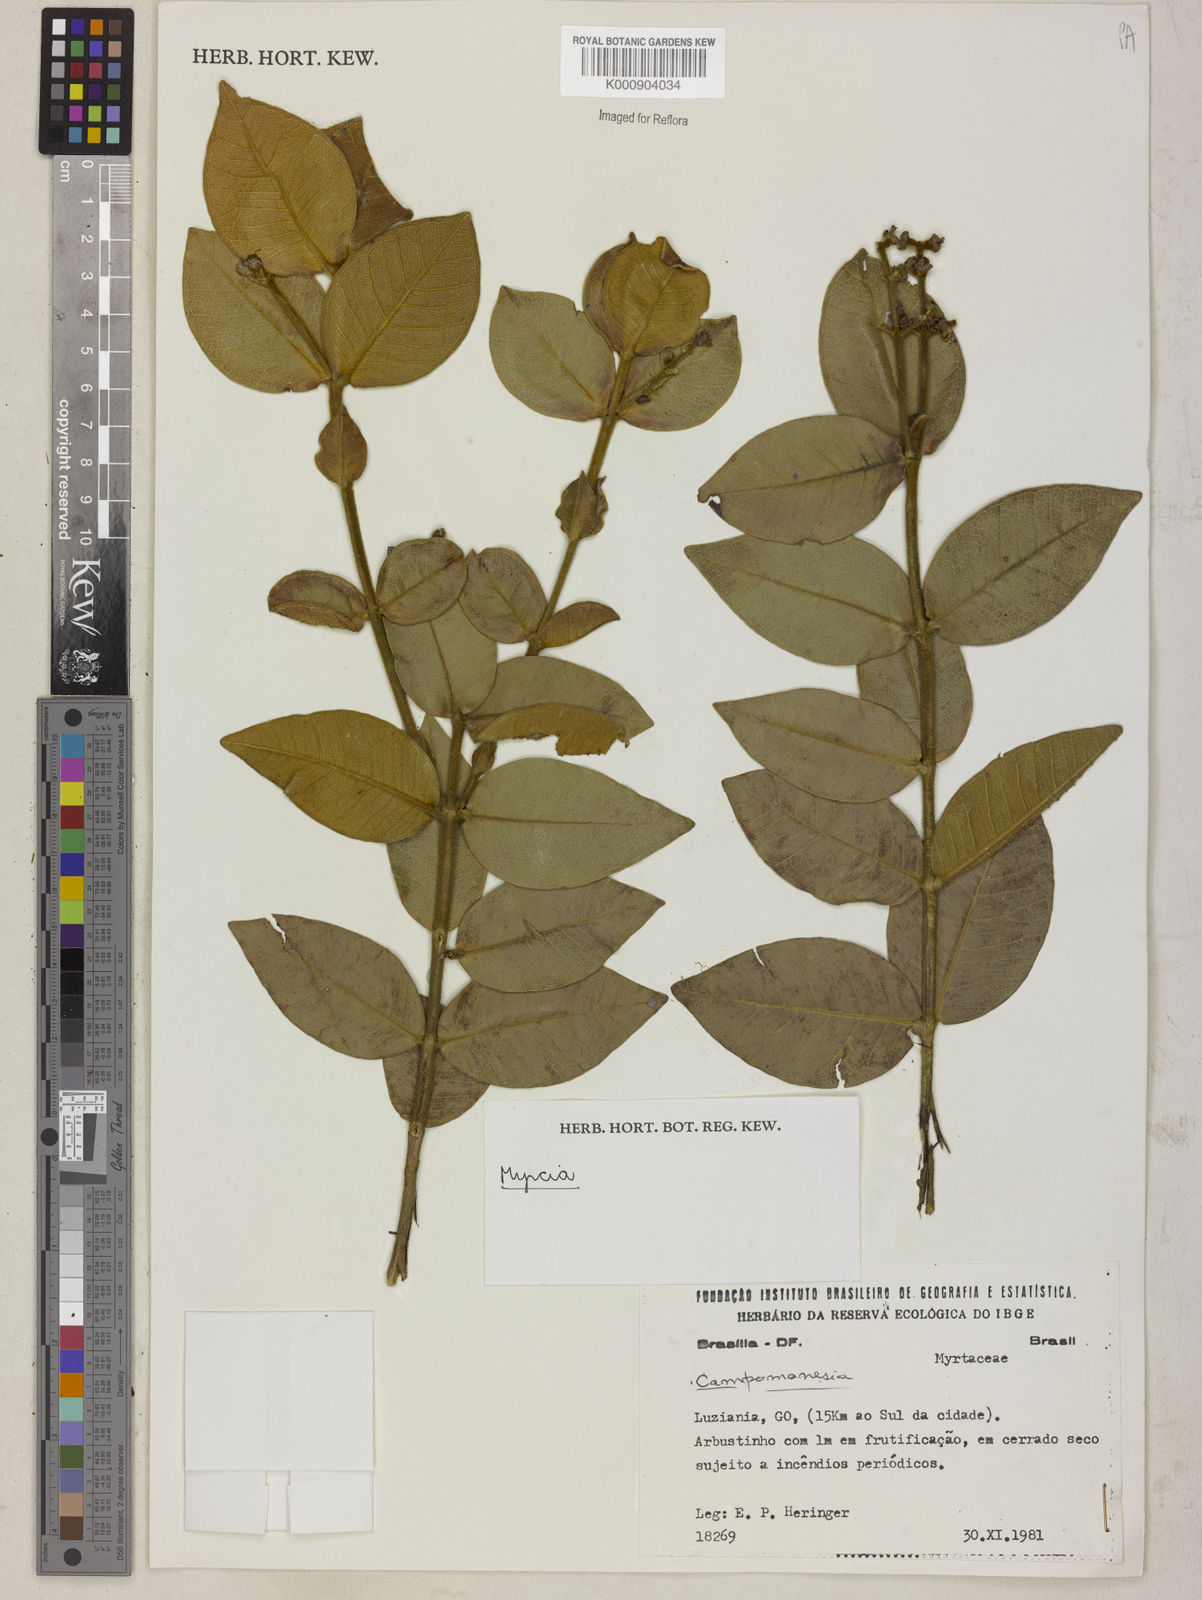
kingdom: Plantae
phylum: Tracheophyta
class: Magnoliopsida
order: Myrtales
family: Myrtaceae
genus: Myrcia
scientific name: Myrcia lanuginosa
